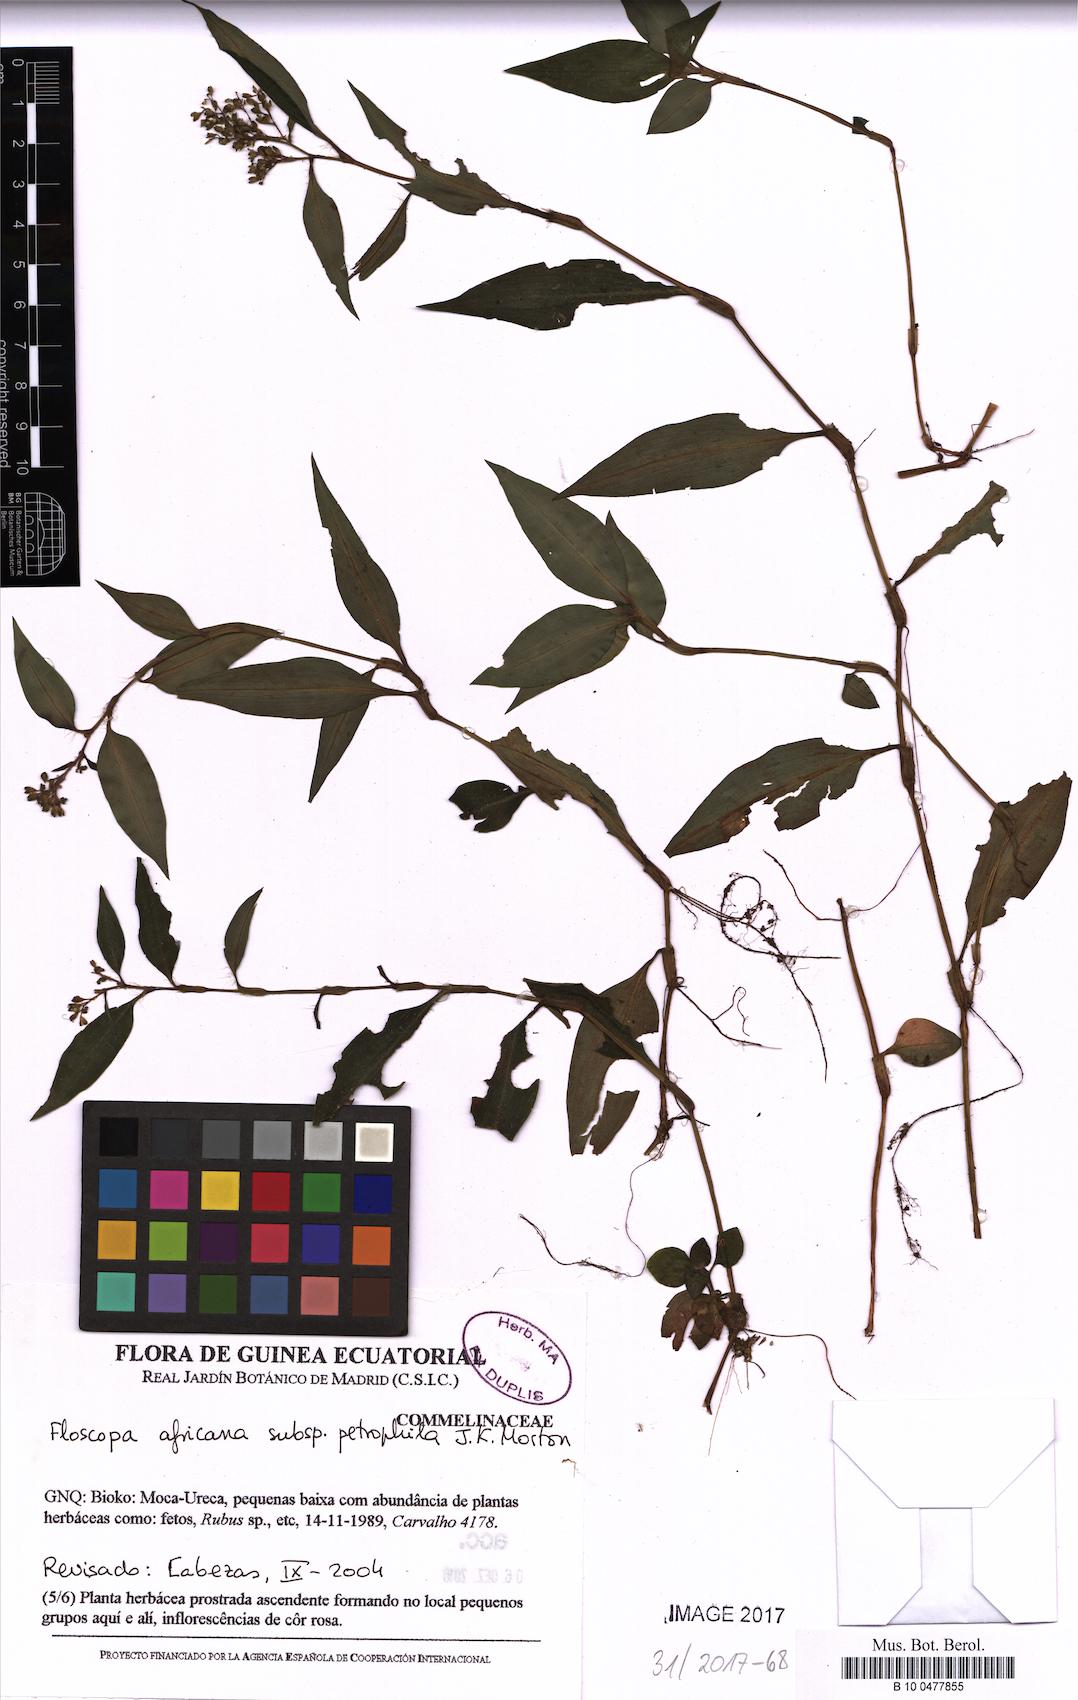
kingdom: Plantae
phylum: Tracheophyta
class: Liliopsida
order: Commelinales
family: Commelinaceae
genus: Floscopa
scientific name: Floscopa africana
